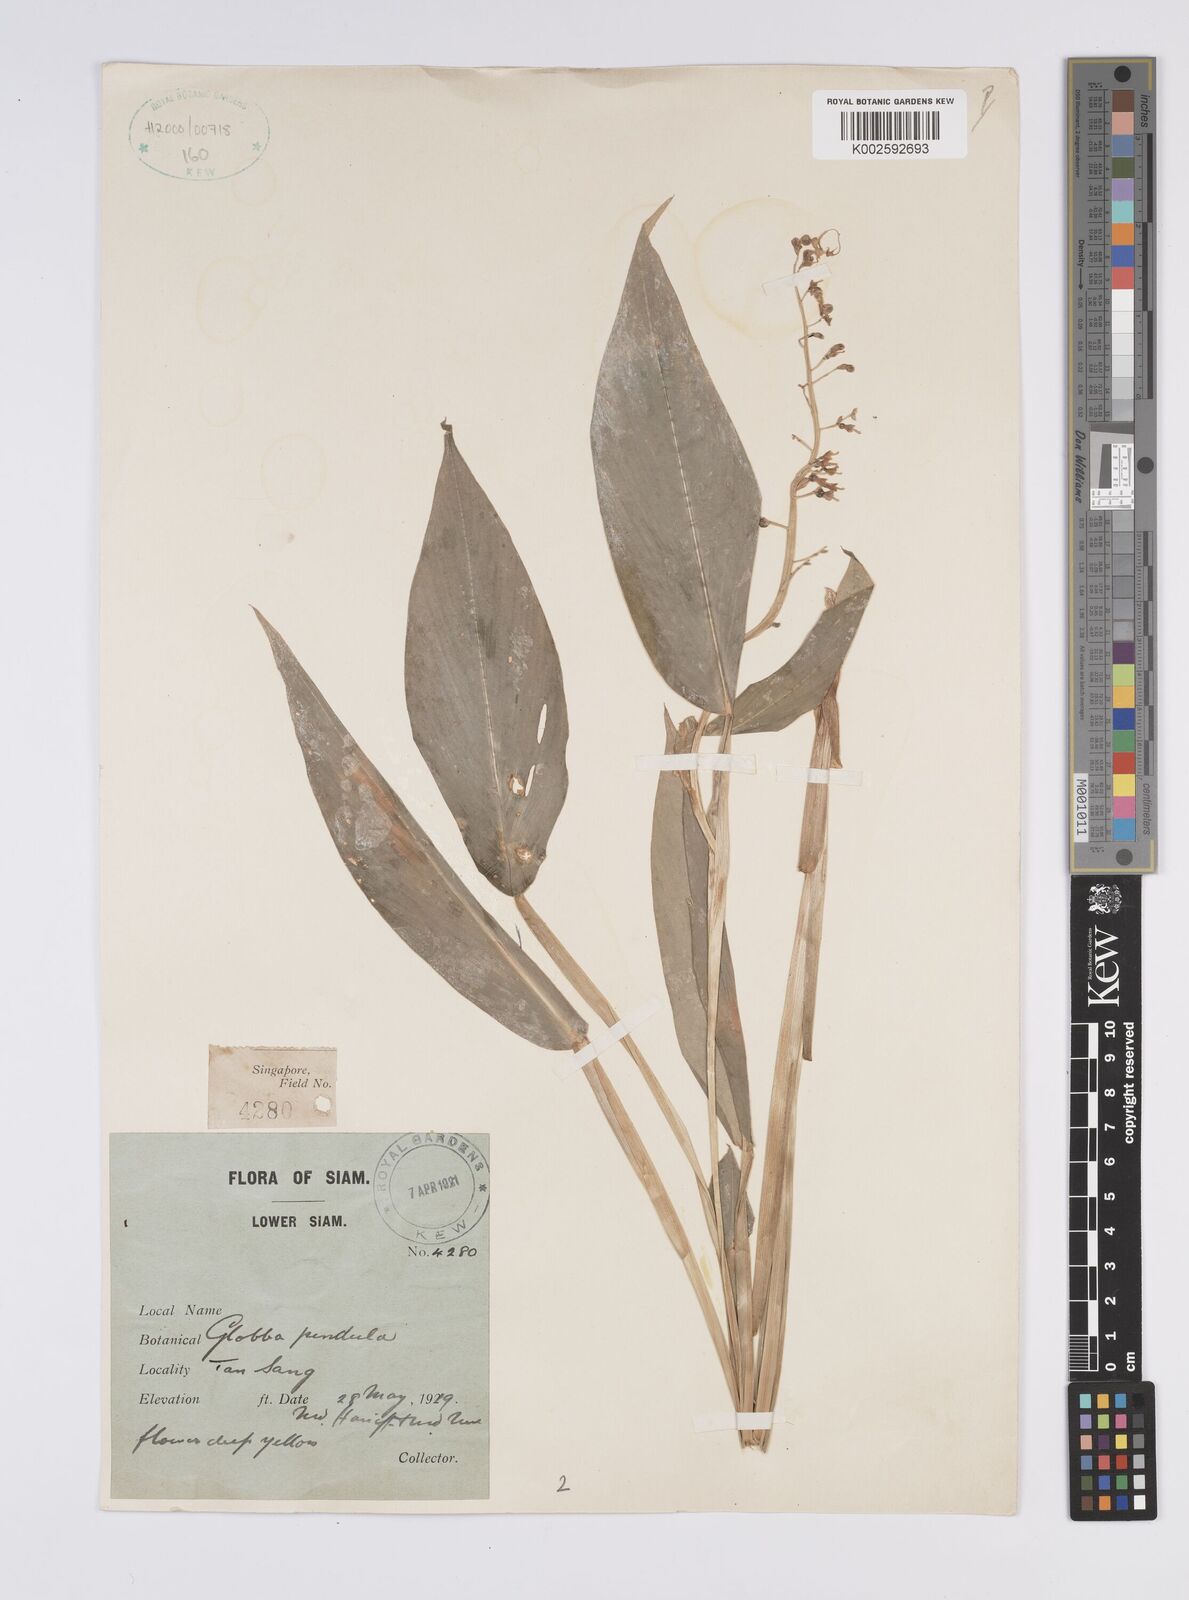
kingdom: Plantae
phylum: Tracheophyta
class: Liliopsida
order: Zingiberales
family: Zingiberaceae
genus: Globba
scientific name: Globba pendula
